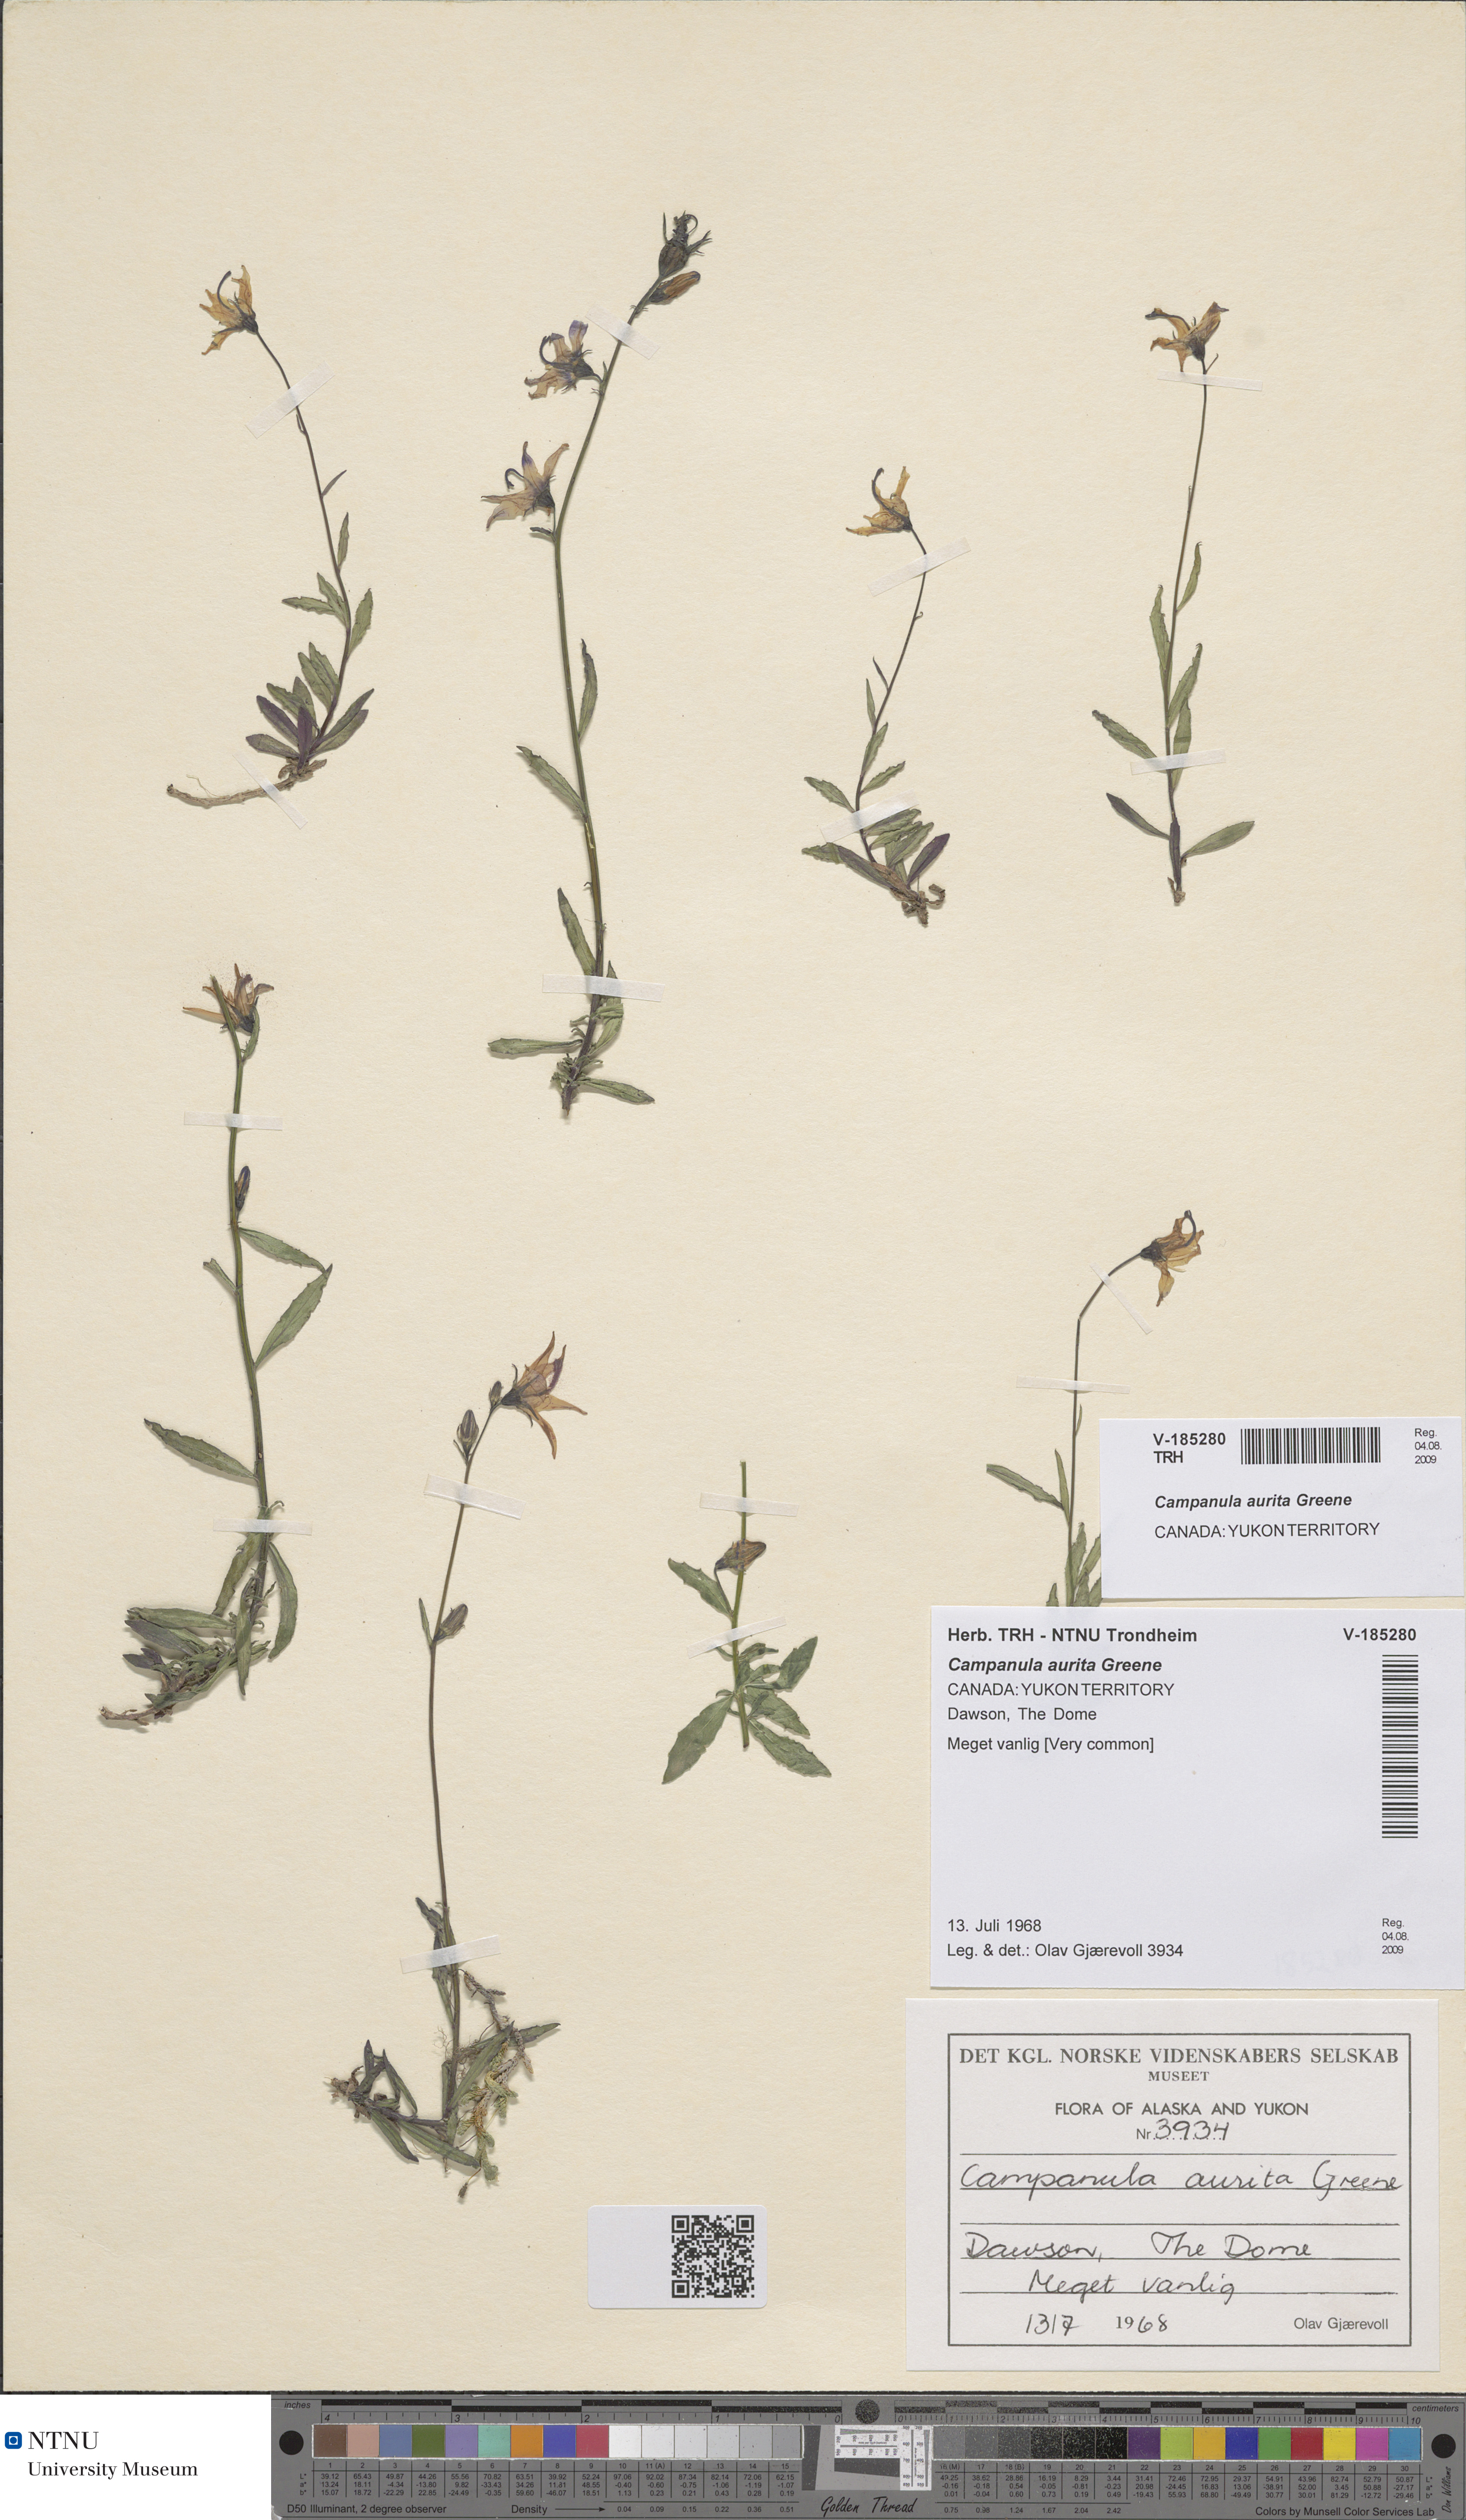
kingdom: Plantae
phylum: Tracheophyta
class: Magnoliopsida
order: Asterales
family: Campanulaceae
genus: Campanula
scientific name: Campanula aurita
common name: Yukon bellflower
